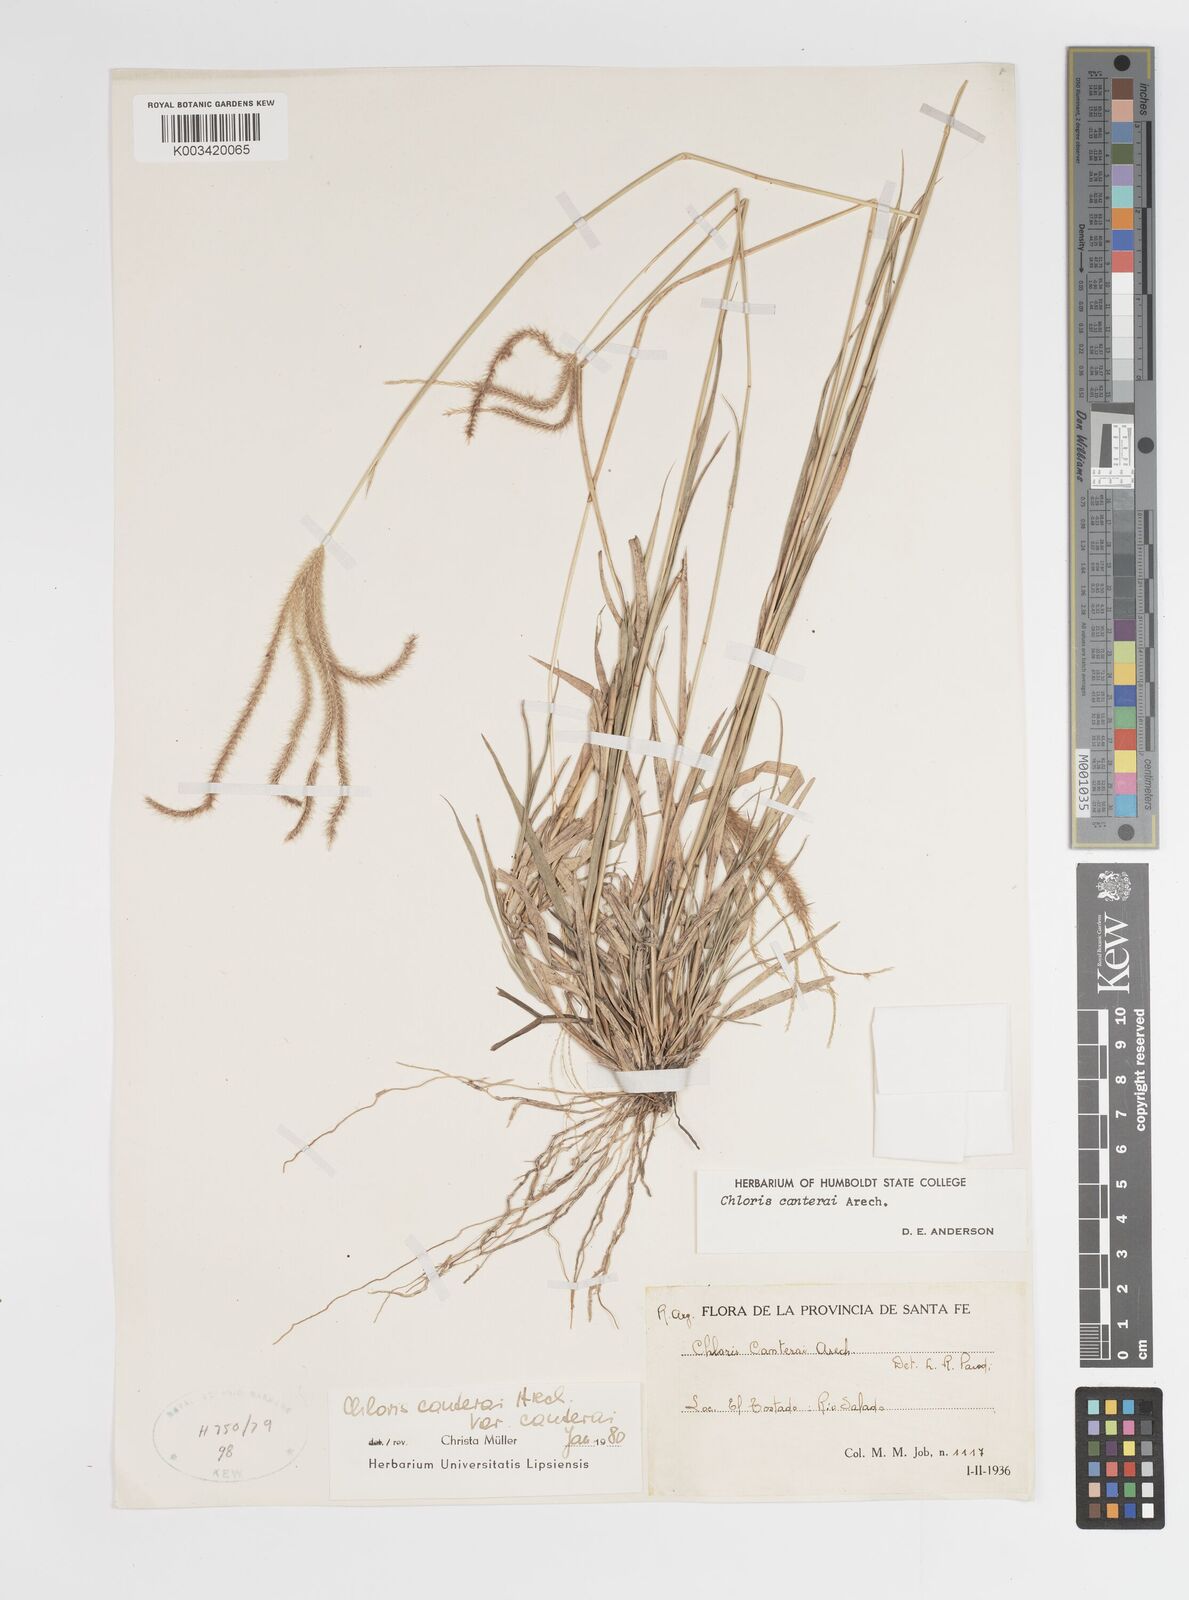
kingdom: Plantae
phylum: Tracheophyta
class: Liliopsida
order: Poales
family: Poaceae
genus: Stapfochloa
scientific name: Stapfochloa canterae
